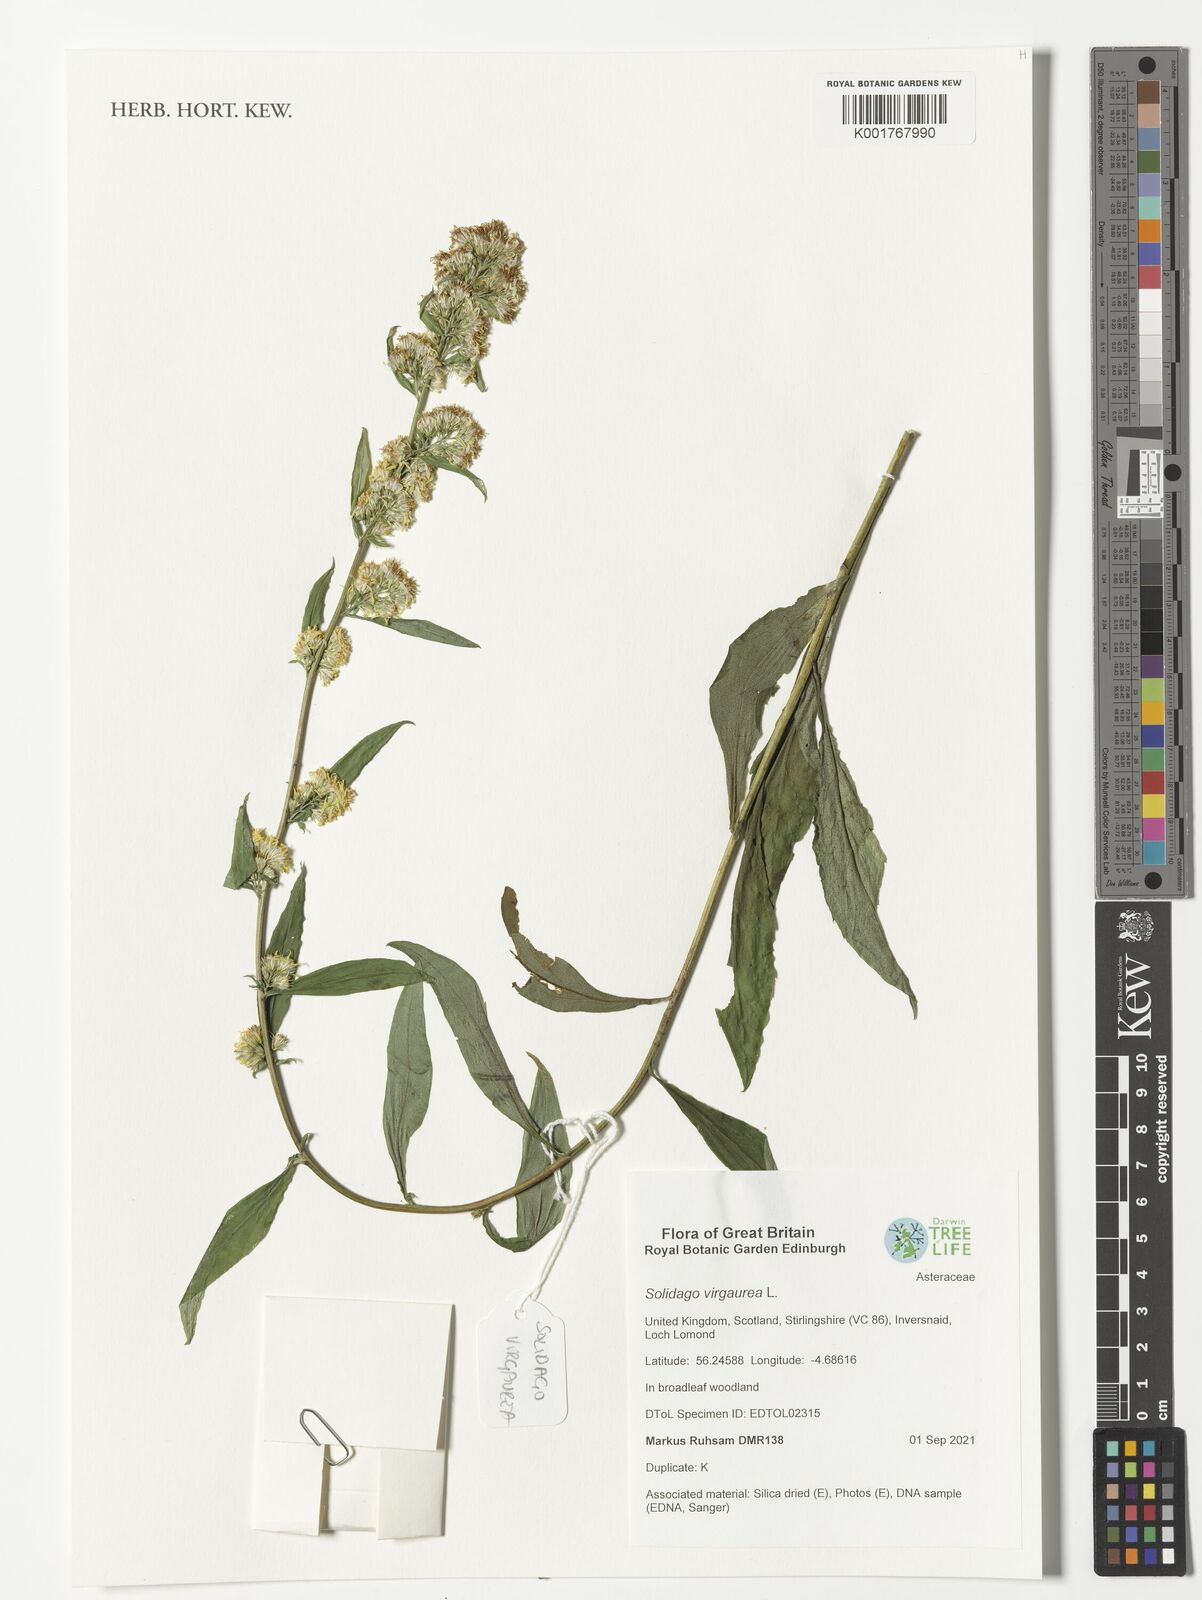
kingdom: Plantae
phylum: Tracheophyta
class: Magnoliopsida
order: Asterales
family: Asteraceae
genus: Solidago
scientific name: Solidago virgaurea
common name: Goldenrod
